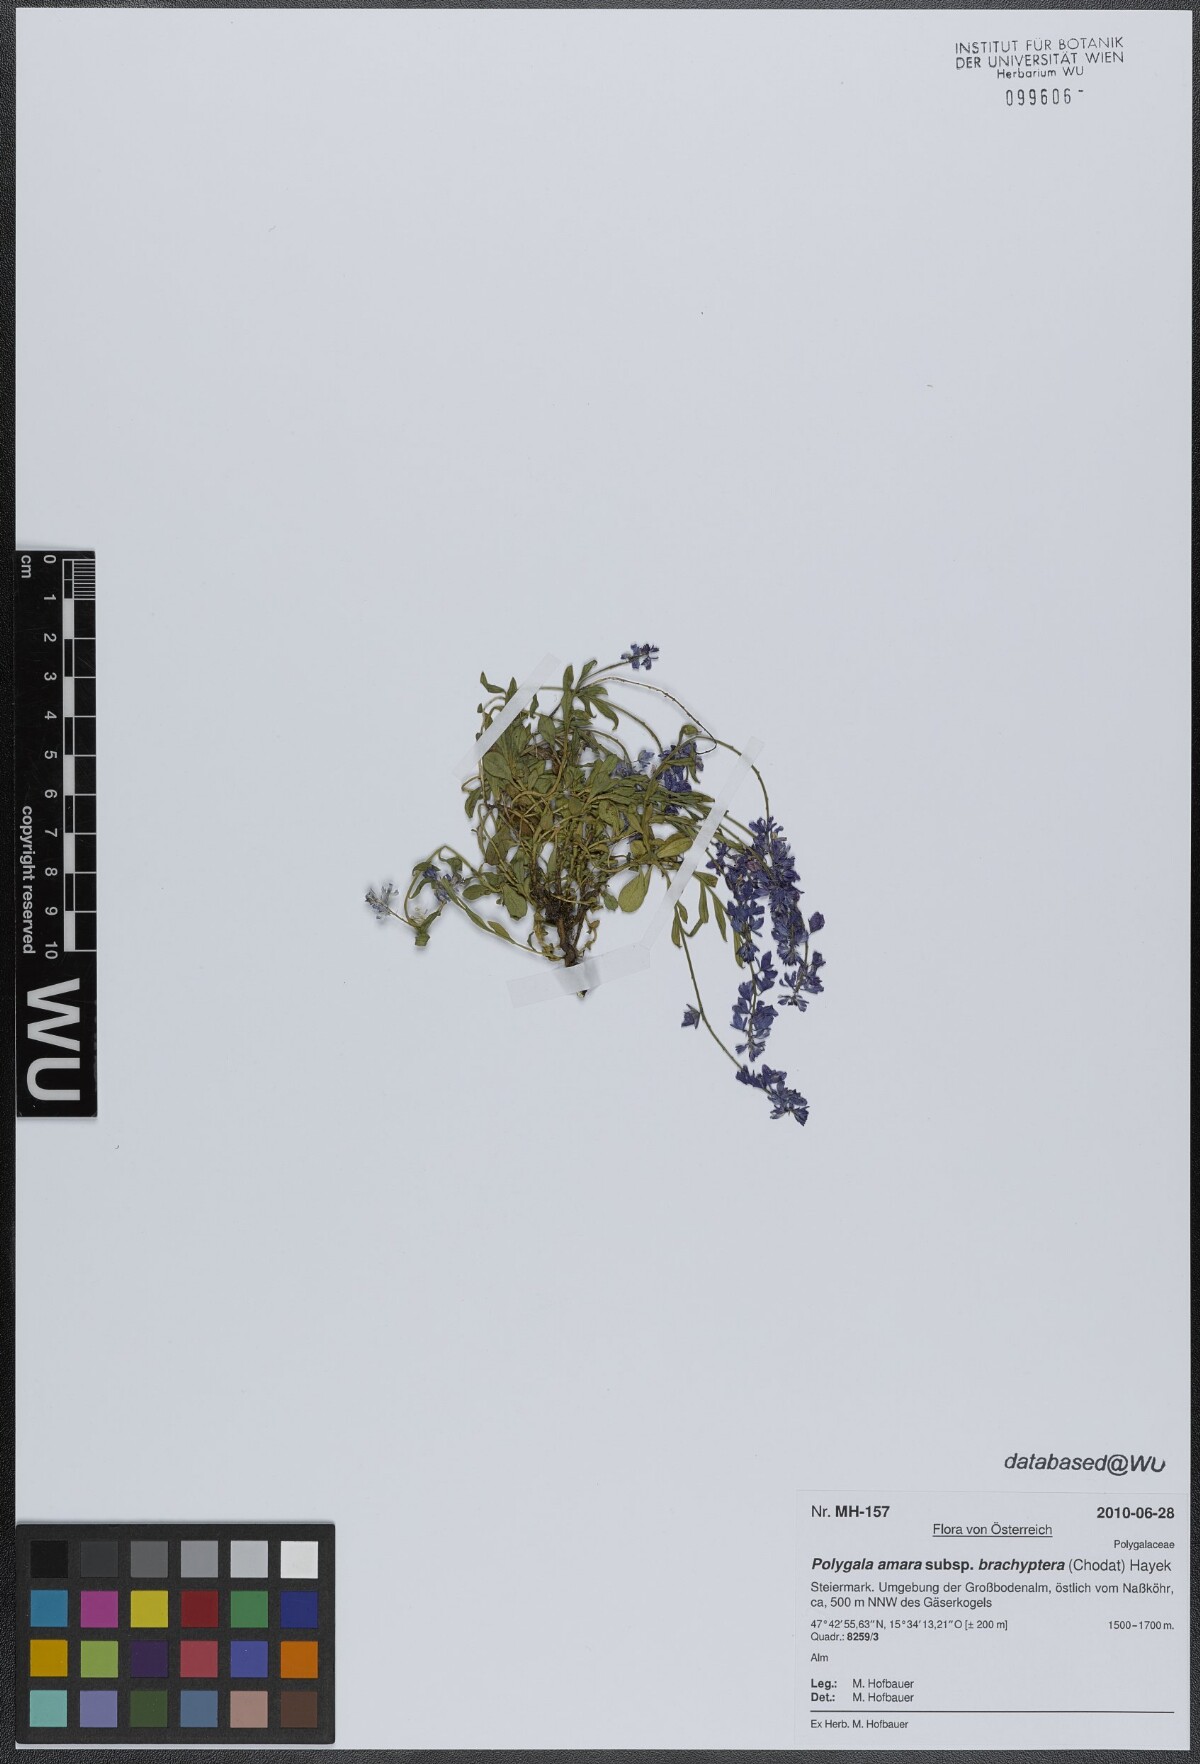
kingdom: Plantae
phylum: Tracheophyta
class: Magnoliopsida
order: Fabales
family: Polygalaceae
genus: Polygala
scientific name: Polygala amara
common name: Milkwort
